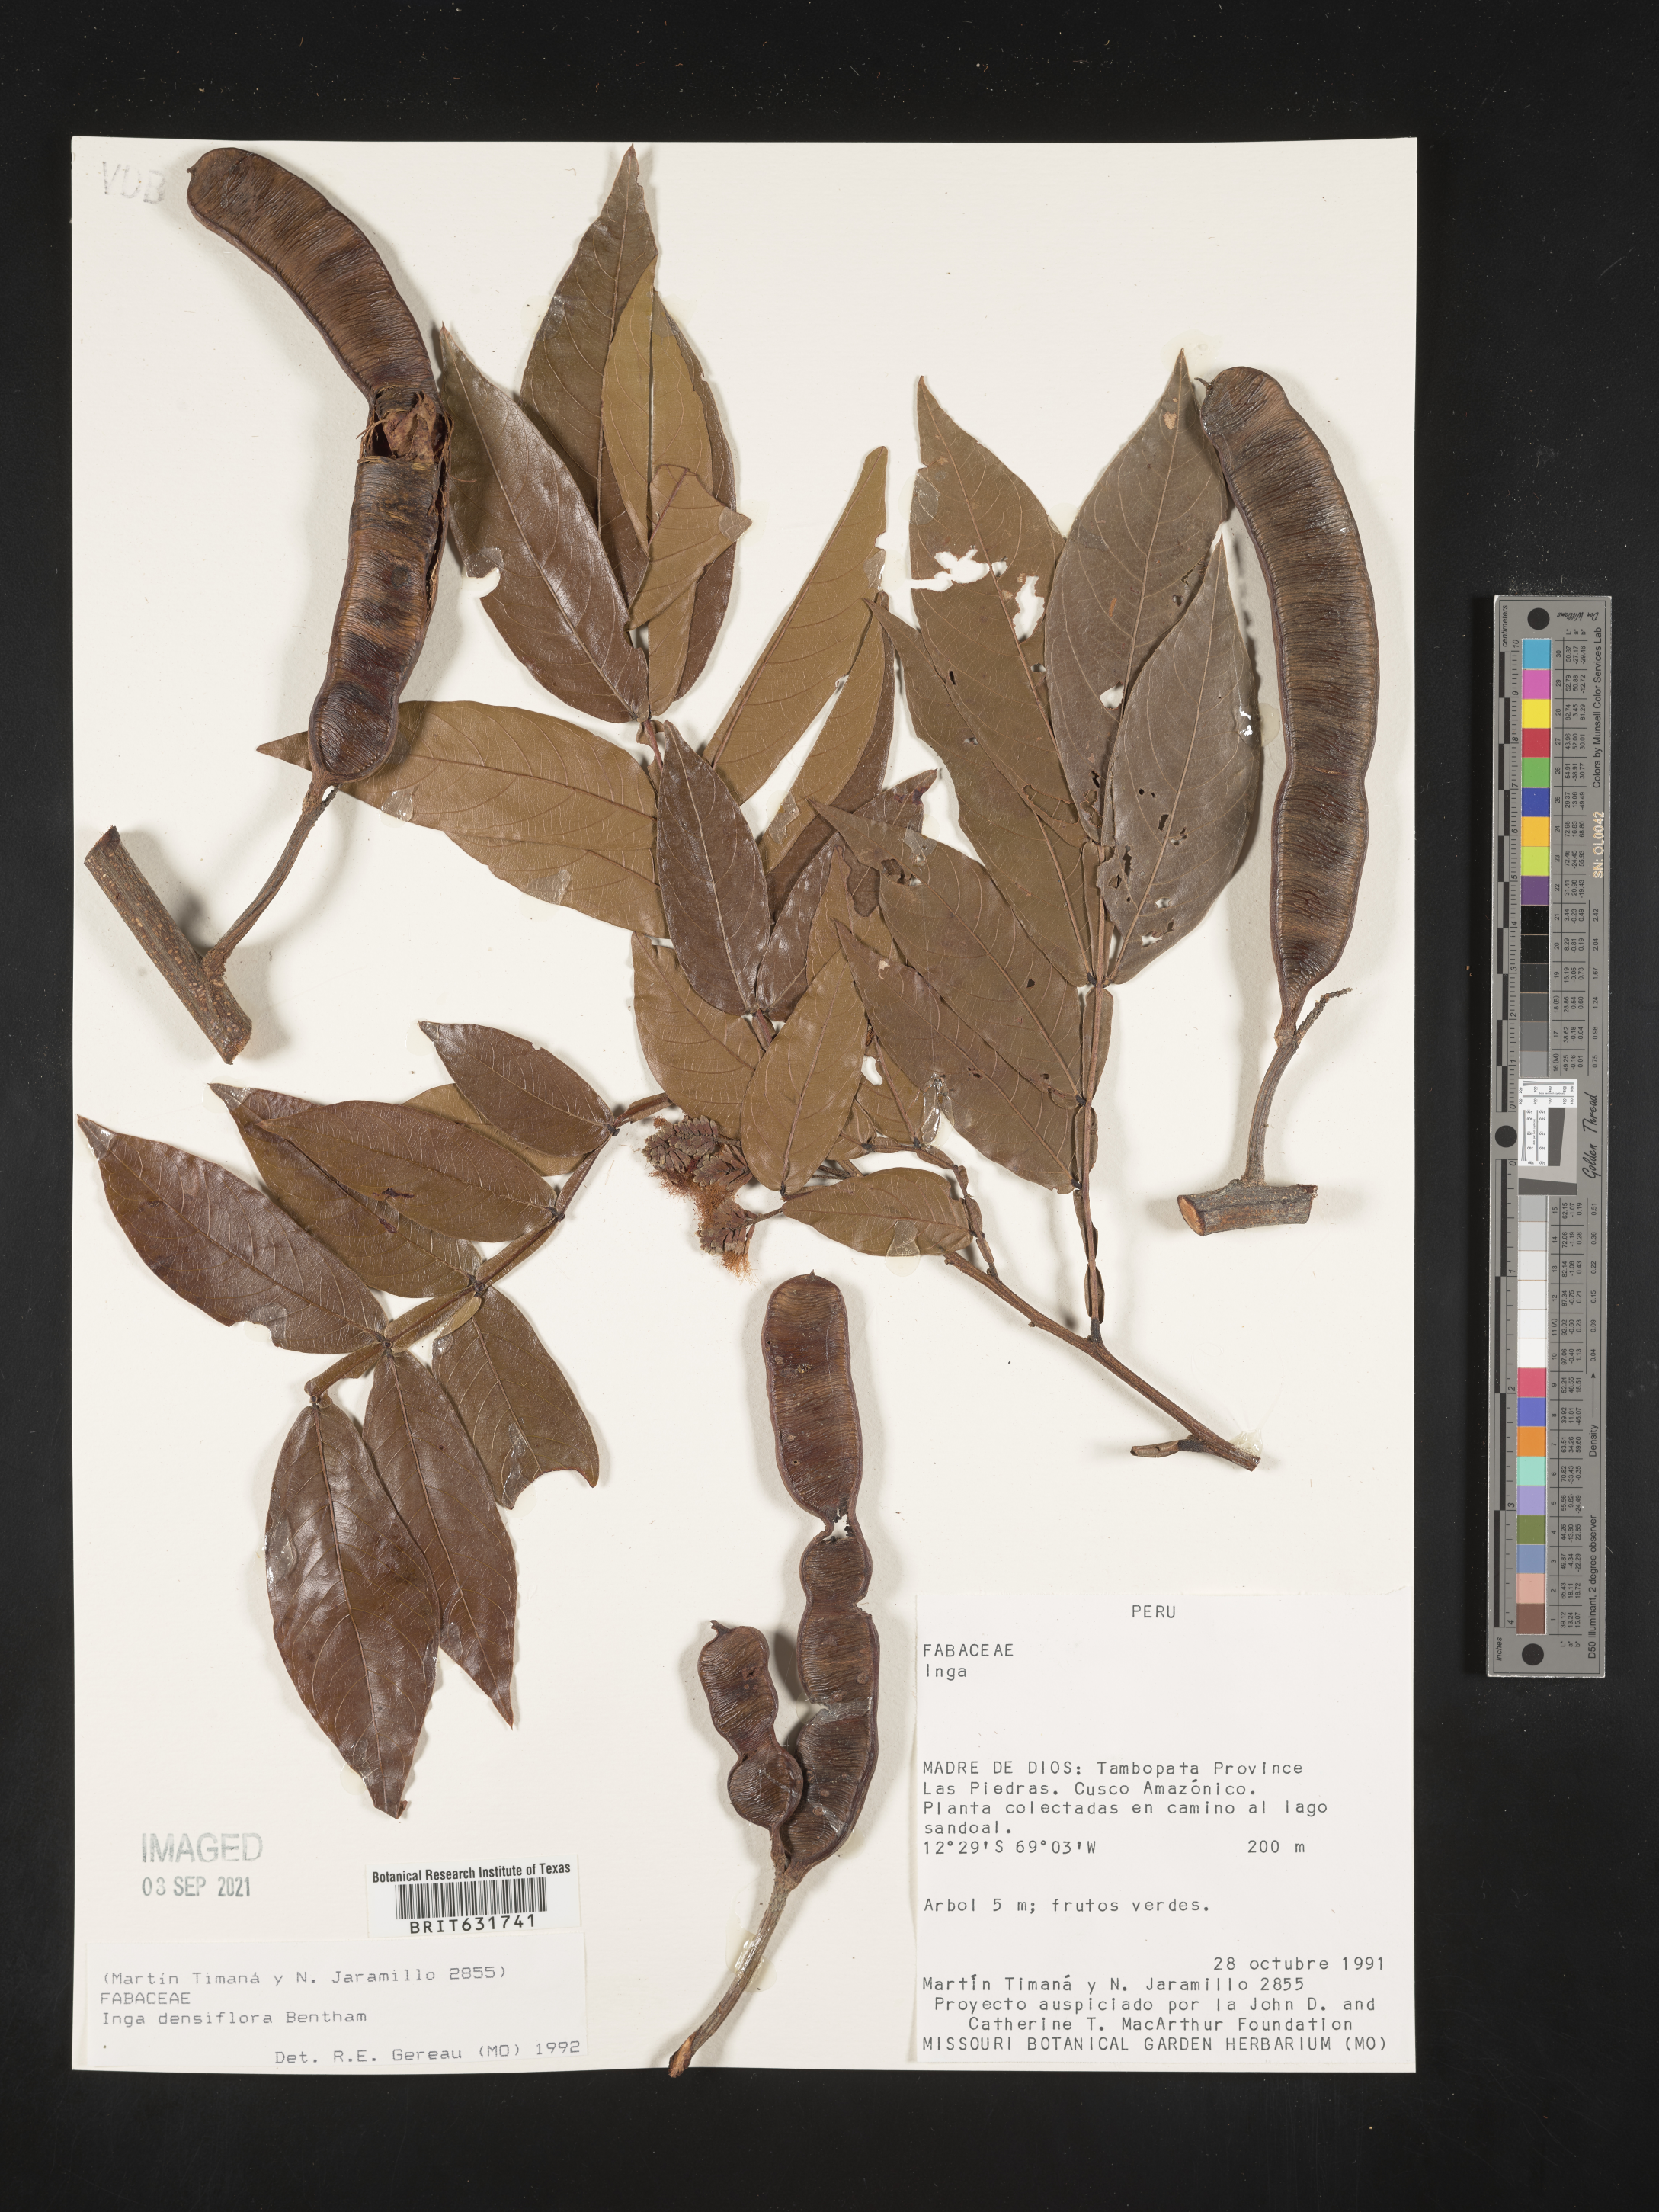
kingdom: Plantae
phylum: Tracheophyta
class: Magnoliopsida
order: Fabales
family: Fabaceae
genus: Inga
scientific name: Inga
